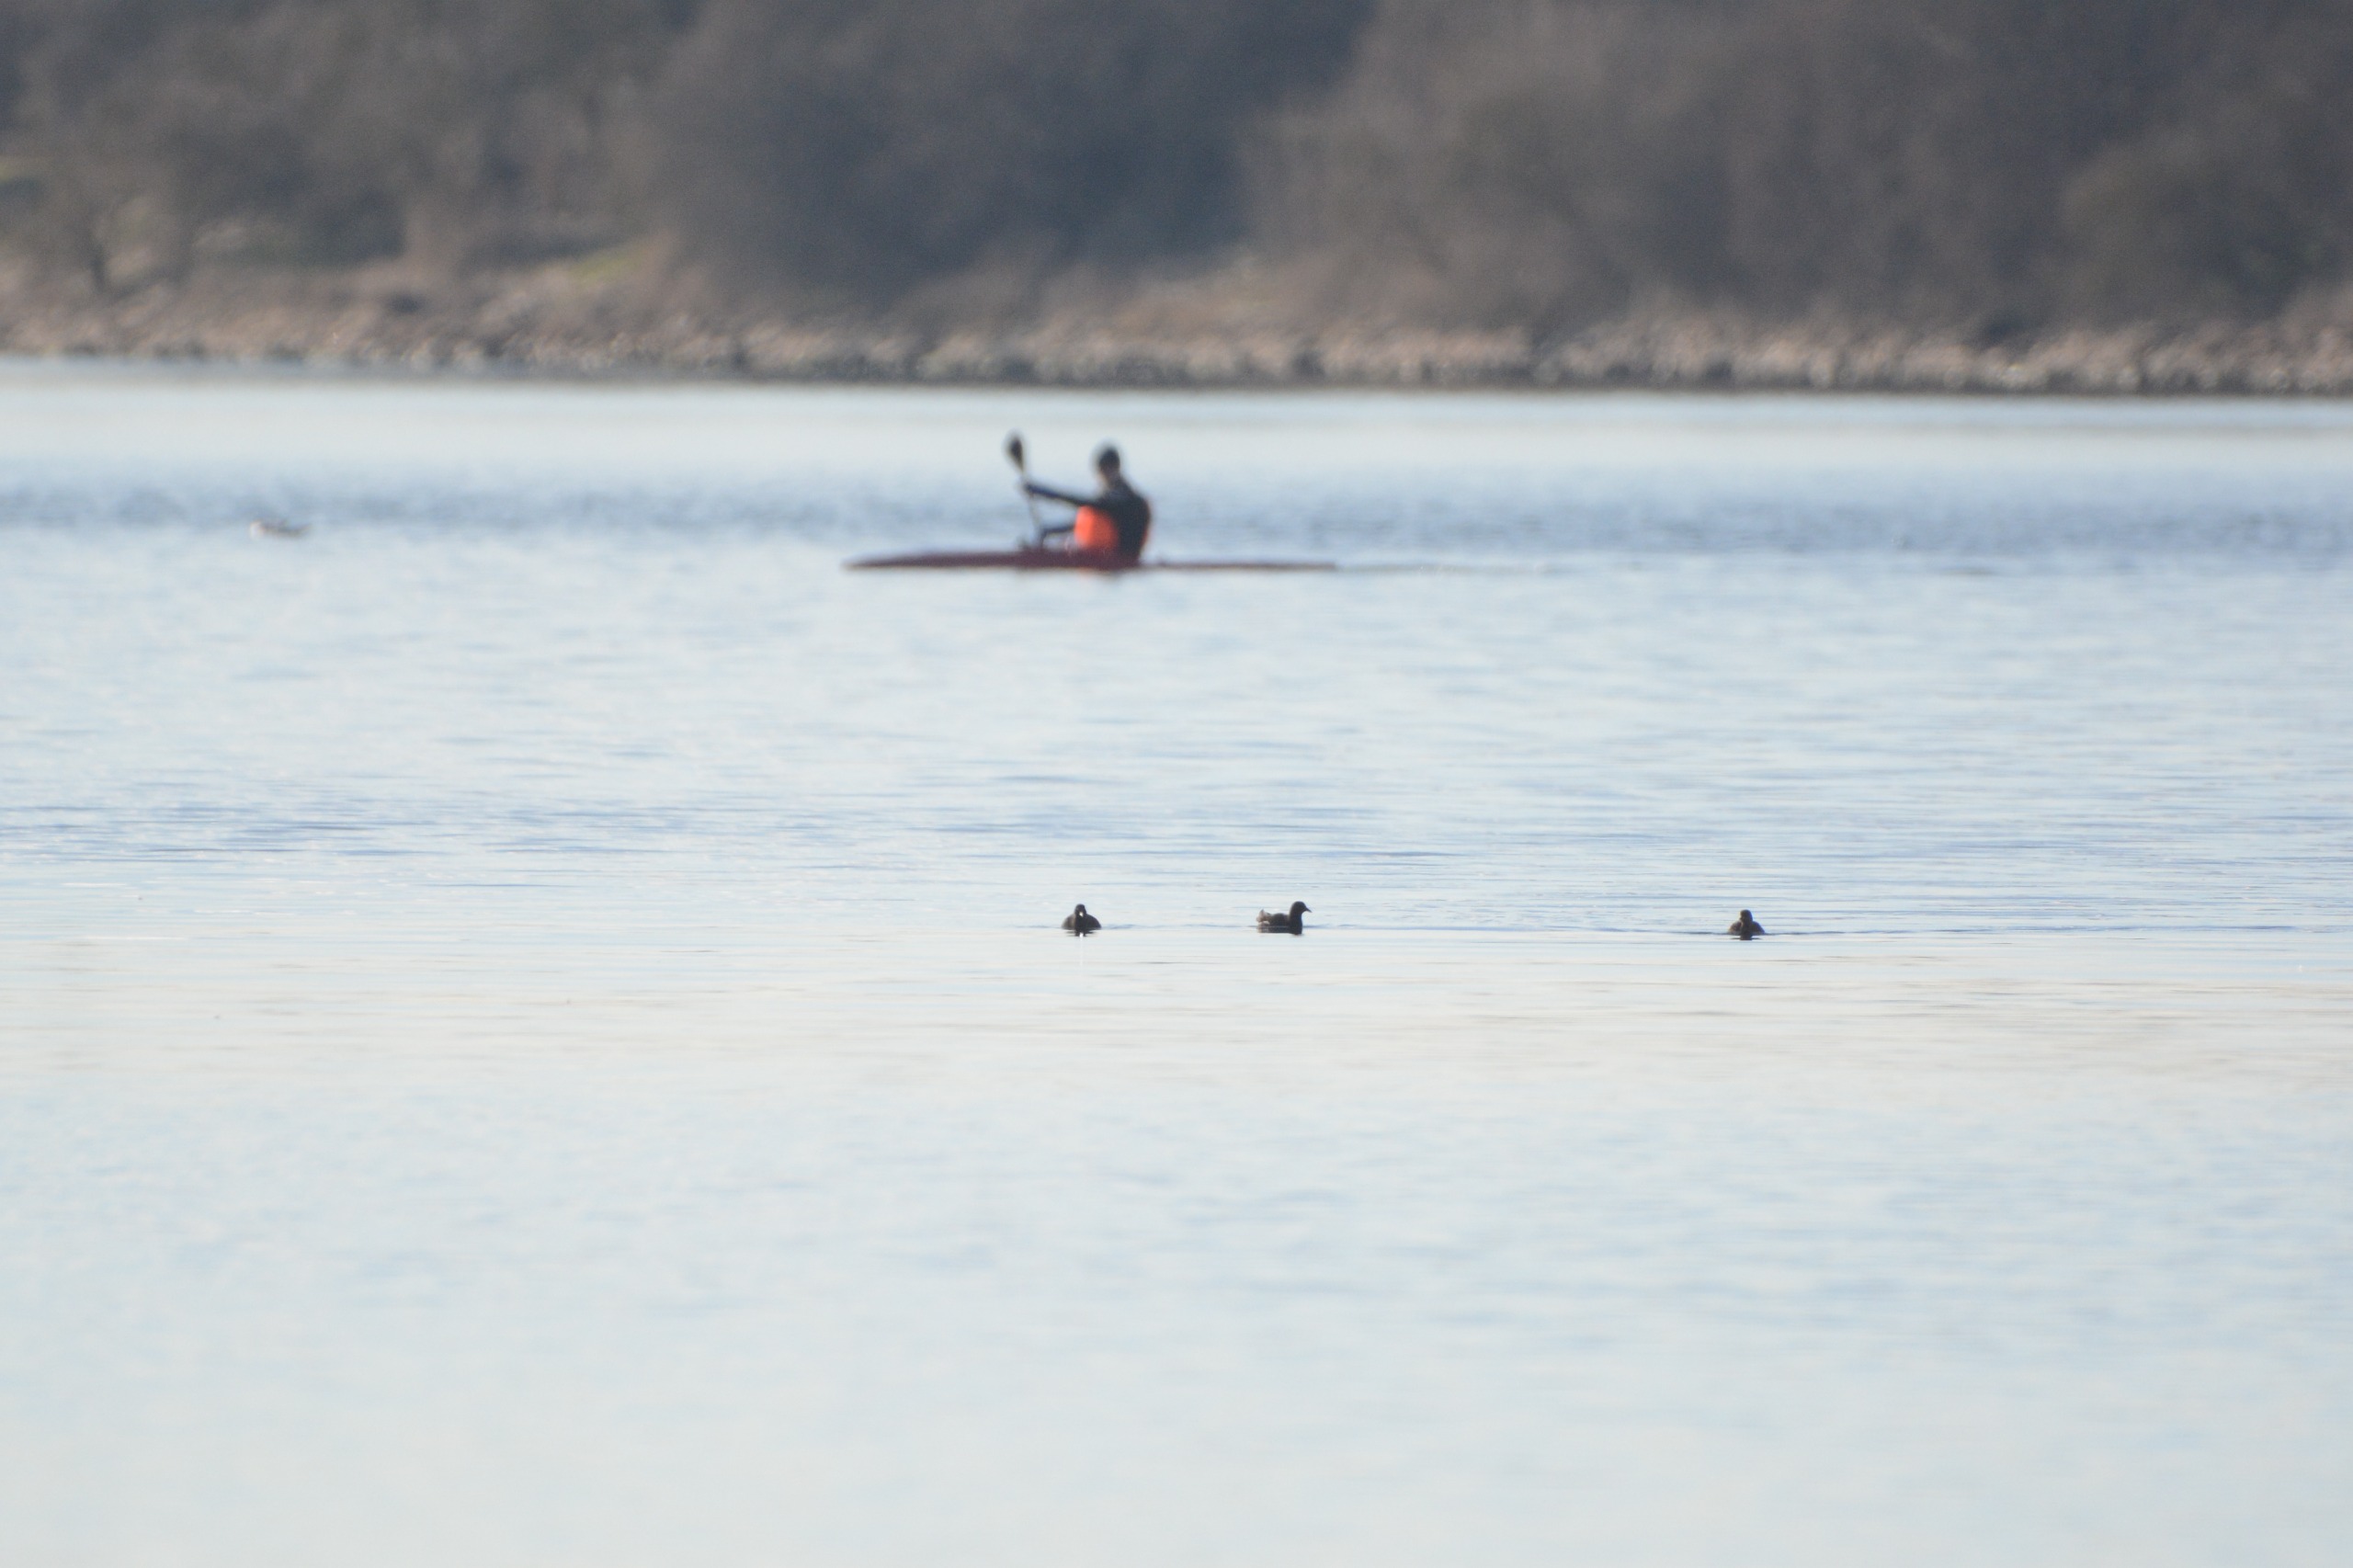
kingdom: Animalia
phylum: Chordata
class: Aves
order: Gruiformes
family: Rallidae
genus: Gallinula
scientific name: Gallinula chloropus
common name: Grønbenet rørhøne
